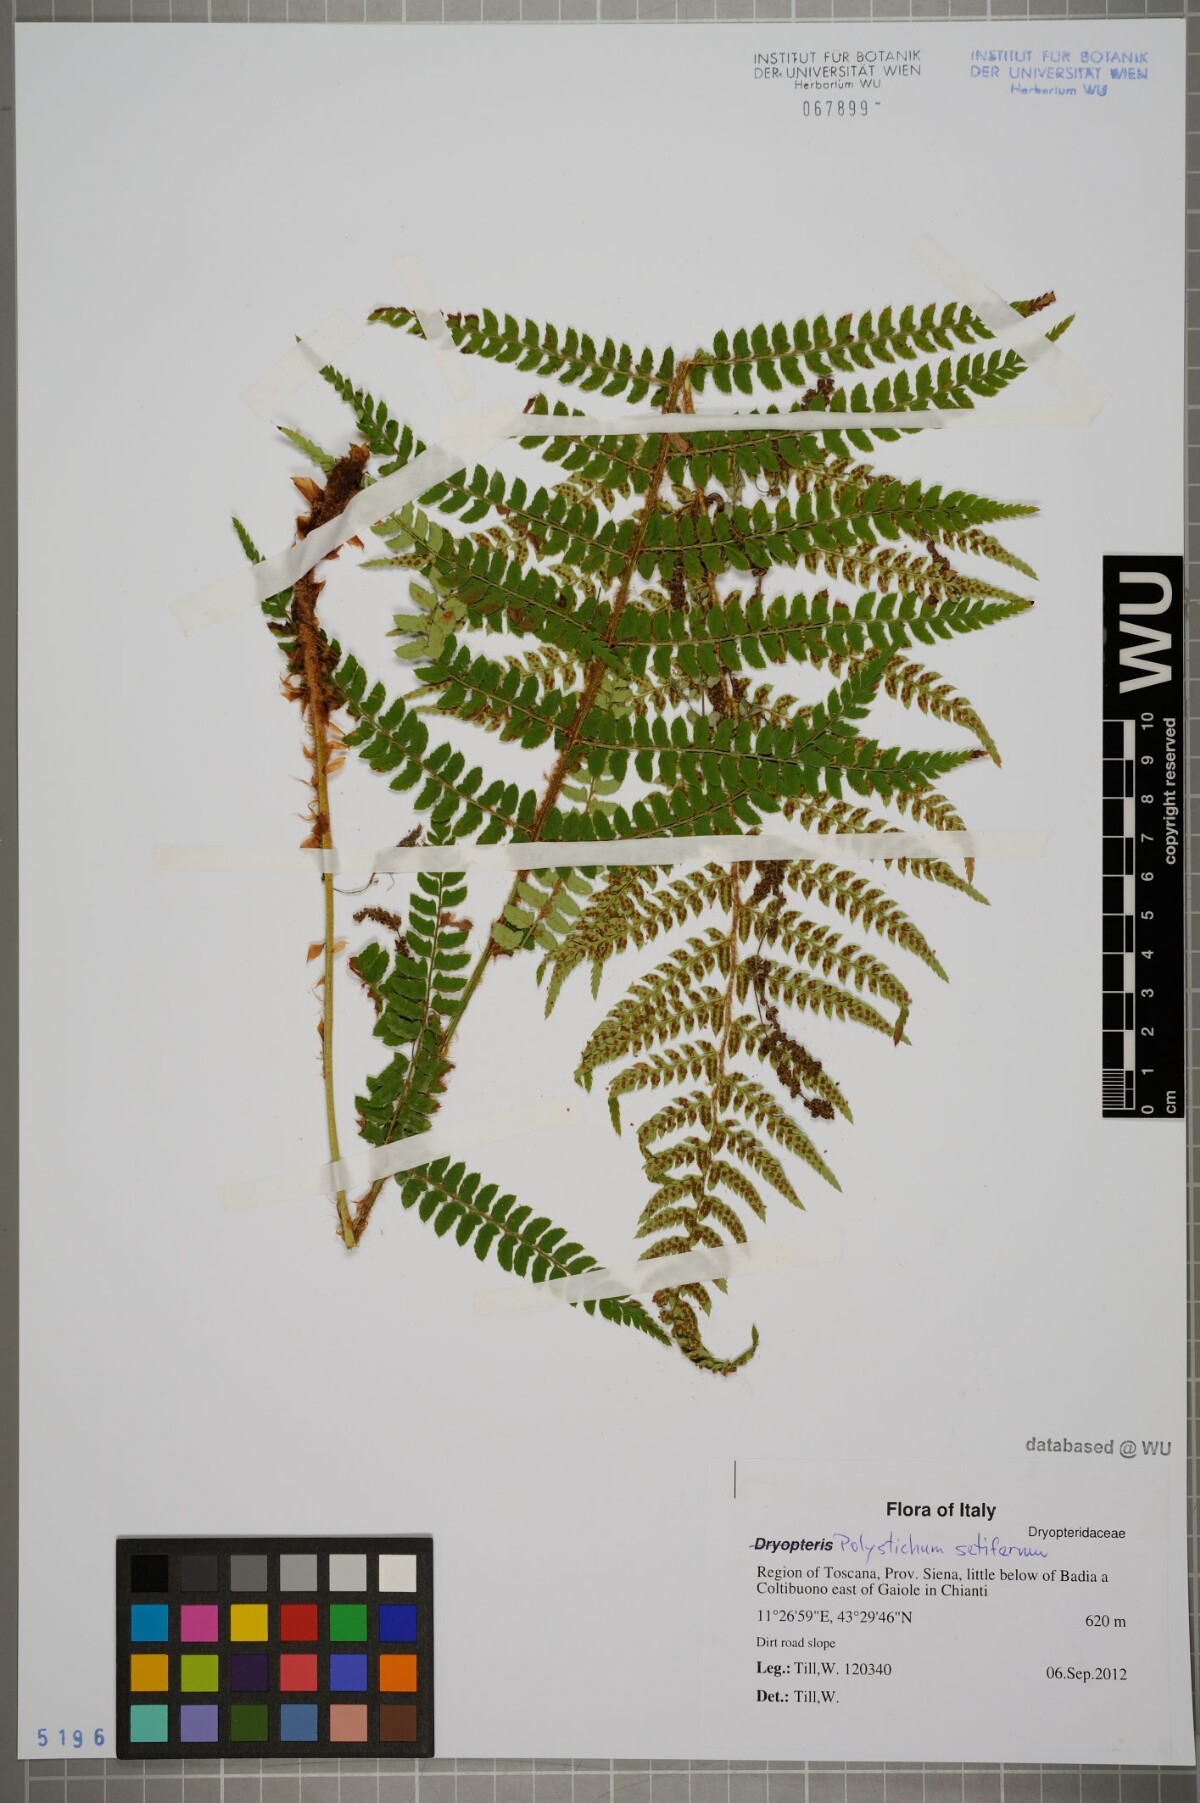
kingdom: Plantae
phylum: Tracheophyta
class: Polypodiopsida
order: Polypodiales
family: Dryopteridaceae
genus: Polystichum
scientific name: Polystichum setiferum
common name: Soft shield-fern
